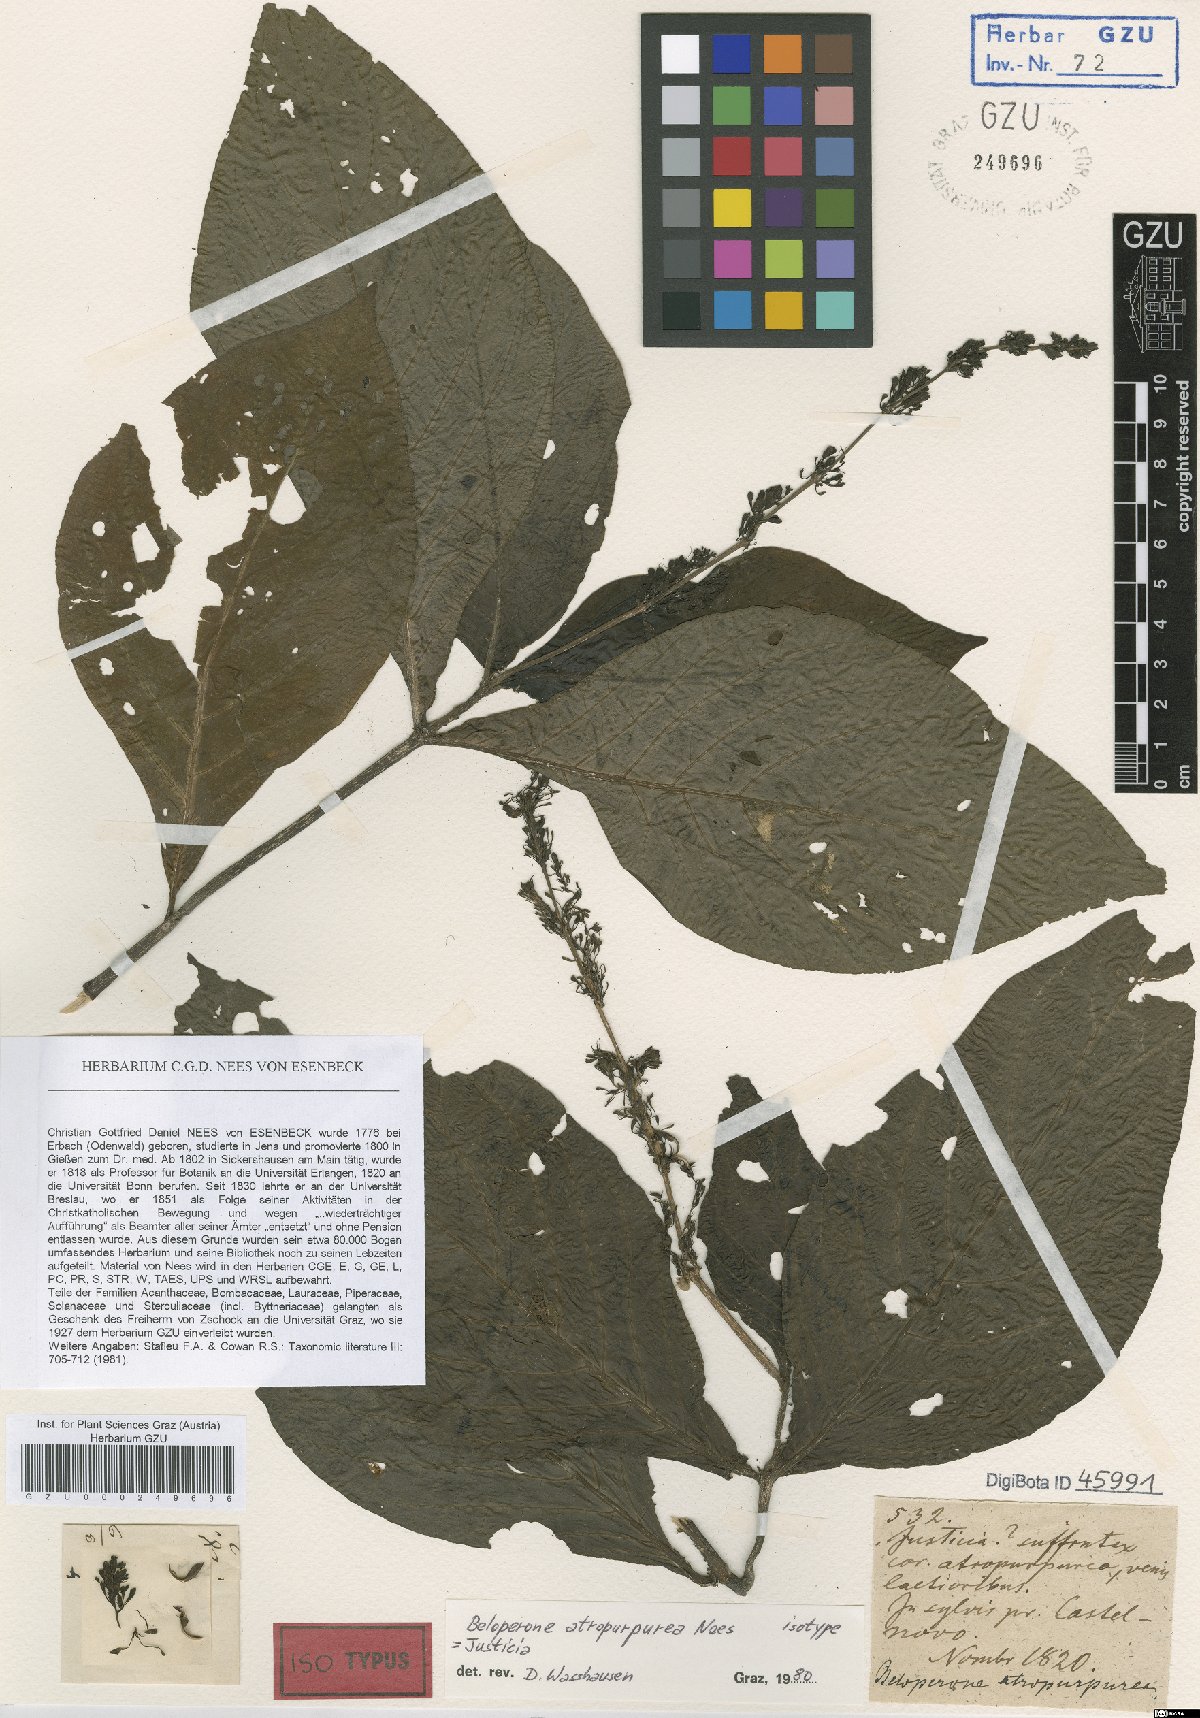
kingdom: Plantae
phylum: Tracheophyta
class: Magnoliopsida
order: Lamiales
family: Acanthaceae
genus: Justicia
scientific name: Justicia Beloperone atropurpurea
